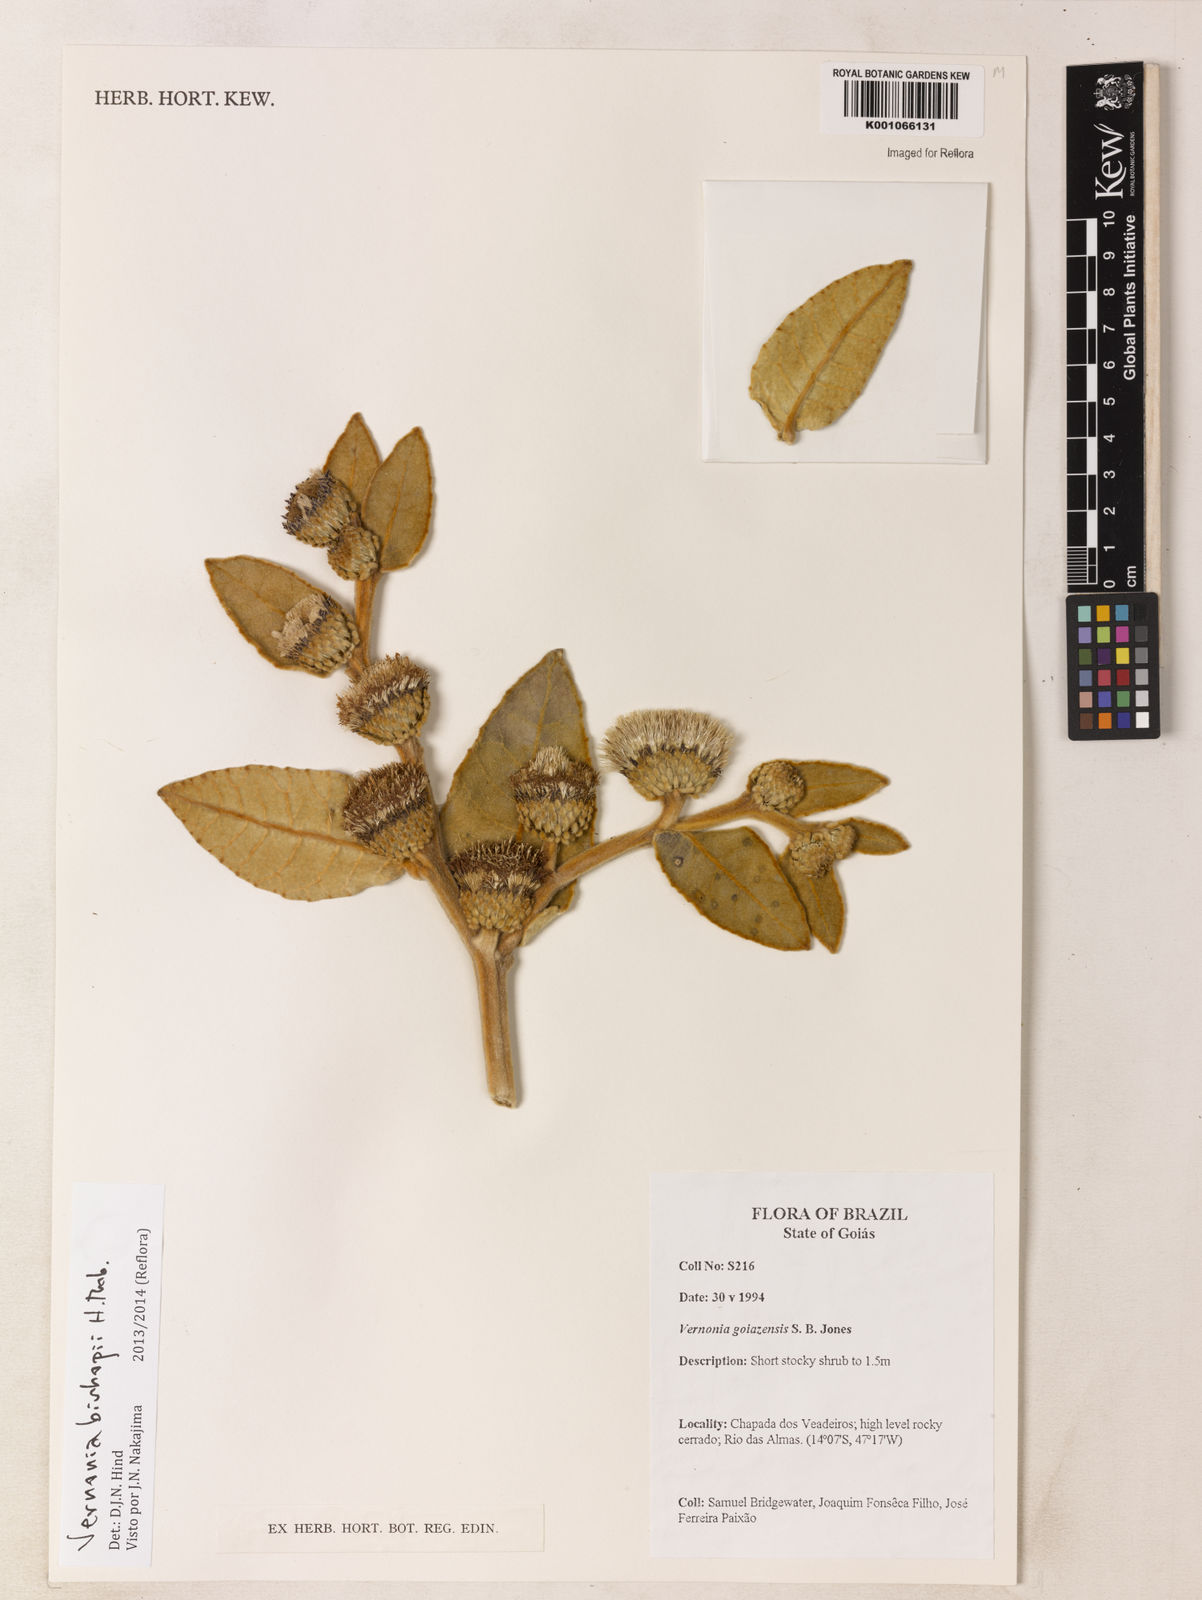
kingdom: Plantae
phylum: Tracheophyta
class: Magnoliopsida
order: Asterales
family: Asteraceae
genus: Lessingianthus
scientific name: Lessingianthus bishopii
